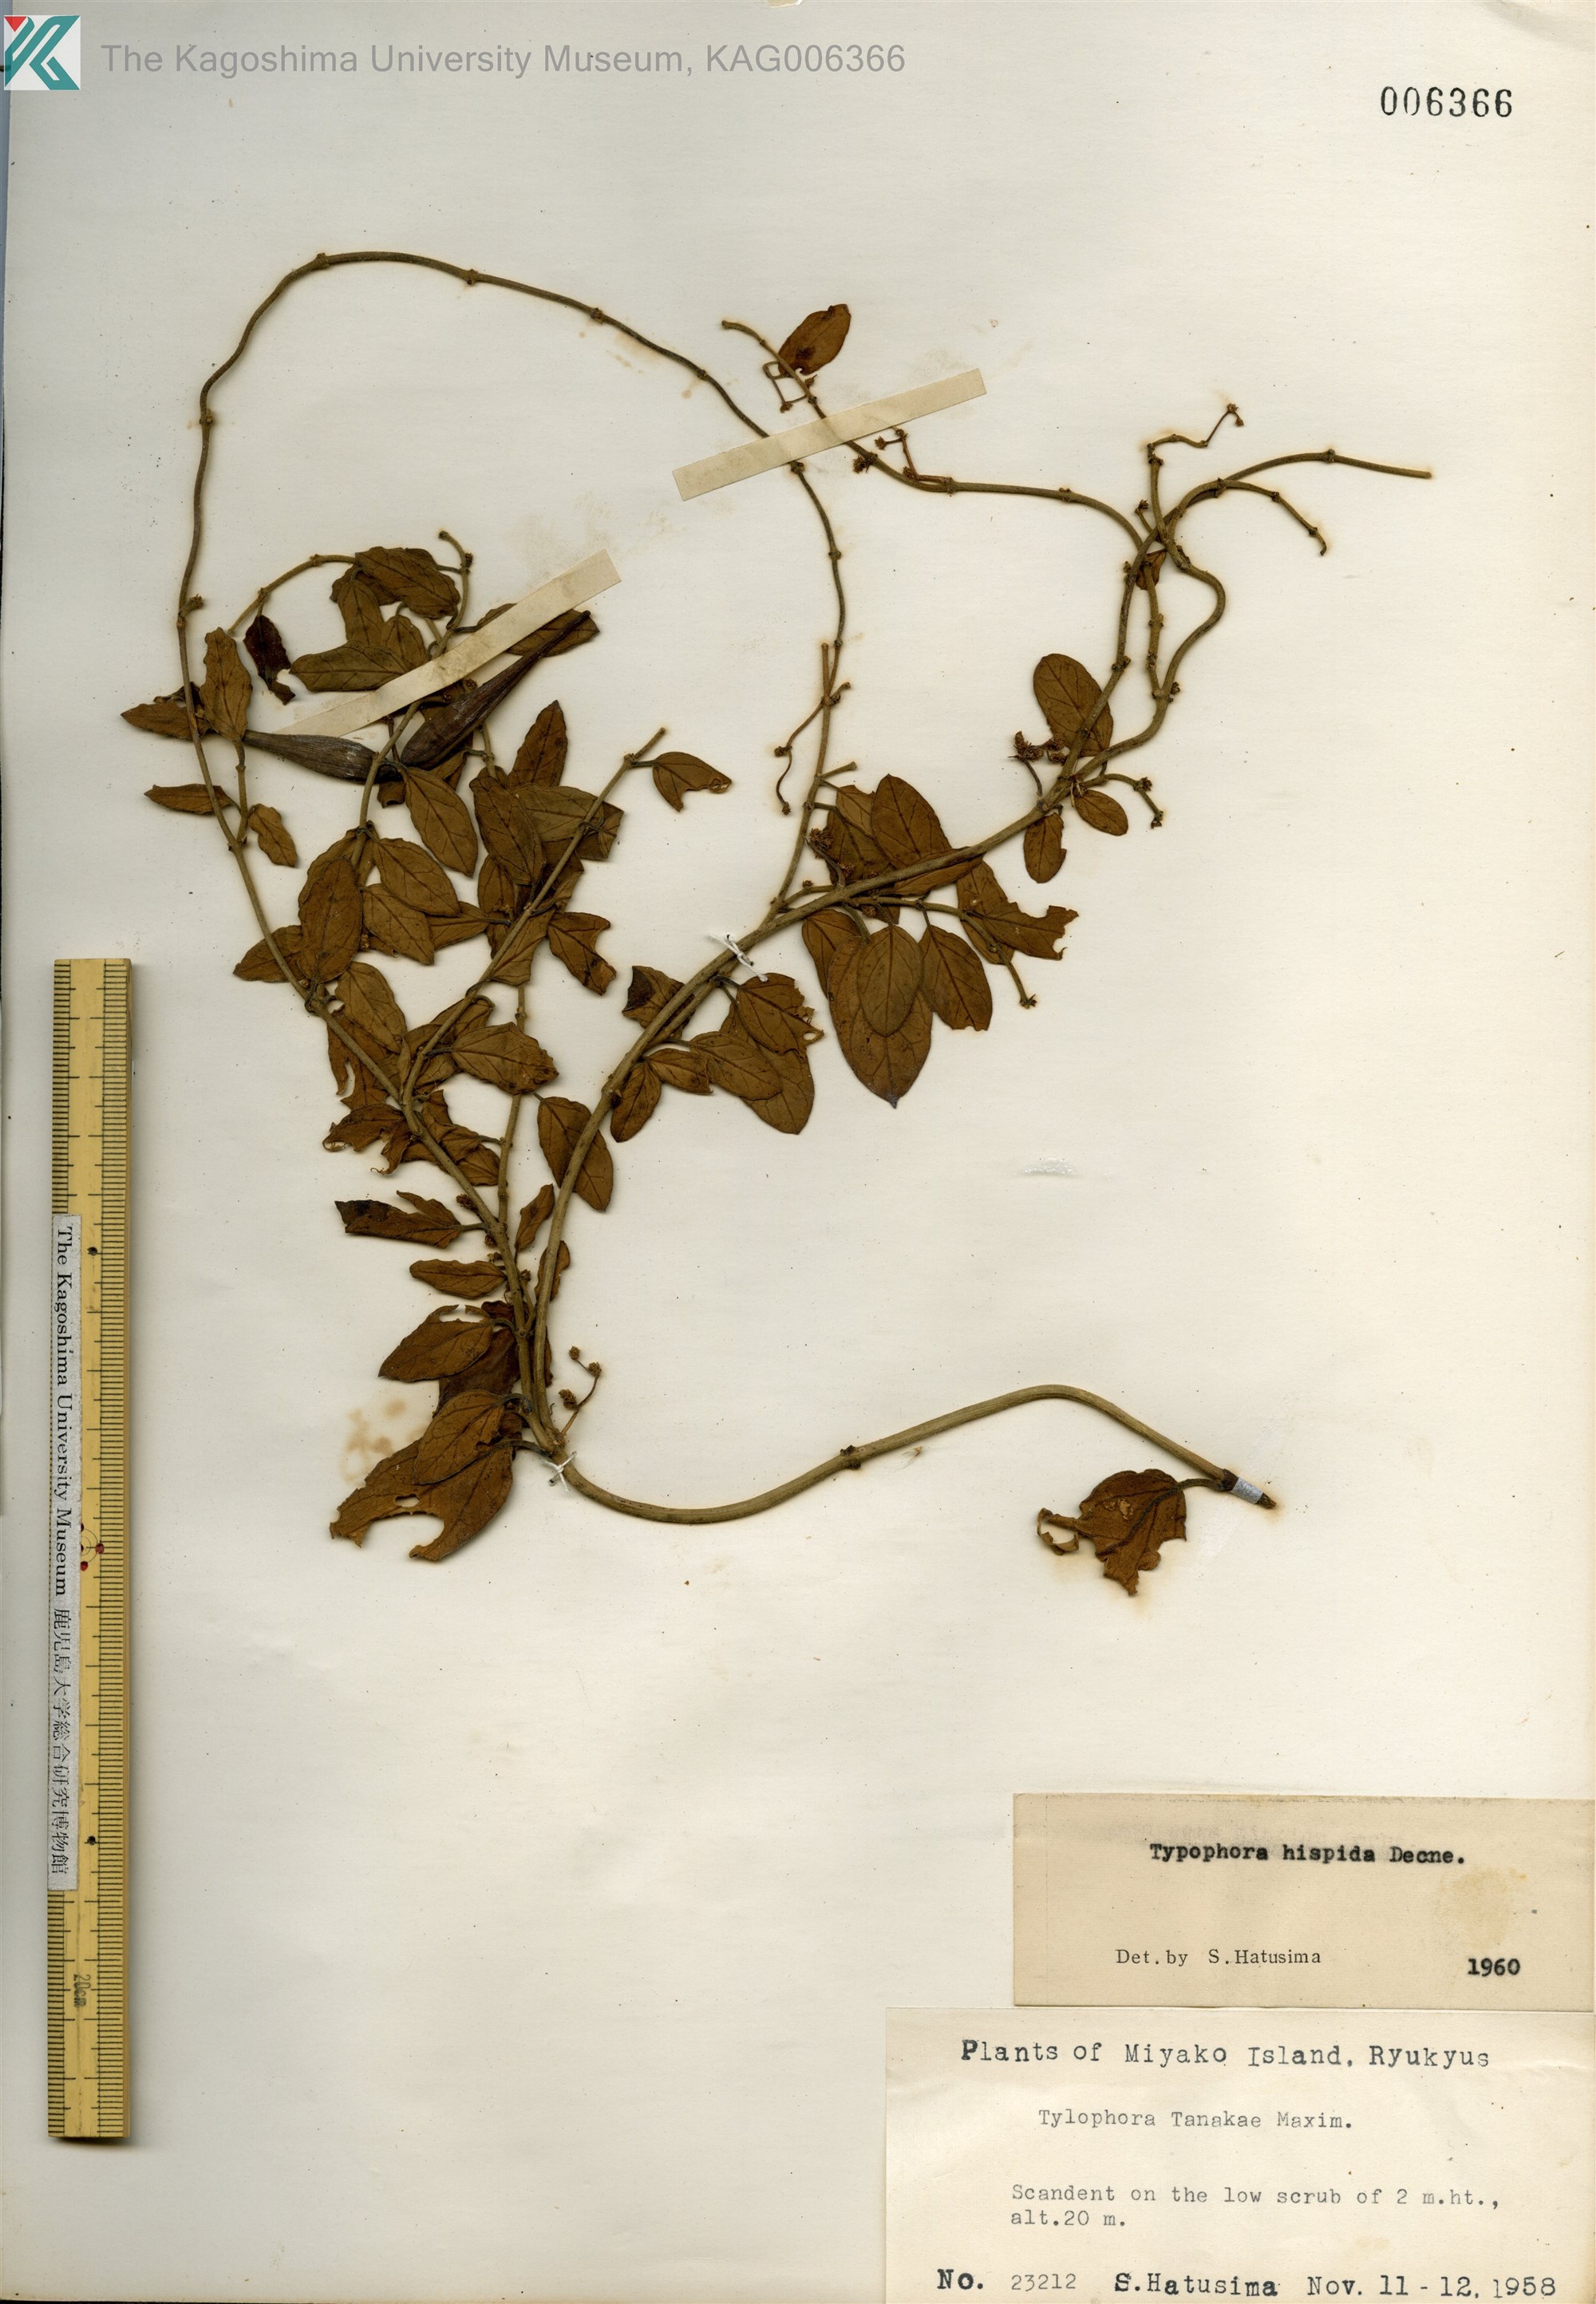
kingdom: Plantae
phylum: Tracheophyta
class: Magnoliopsida
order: Gentianales
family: Apocynaceae
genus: Vincetoxicum
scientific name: Vincetoxicum hirsutum
